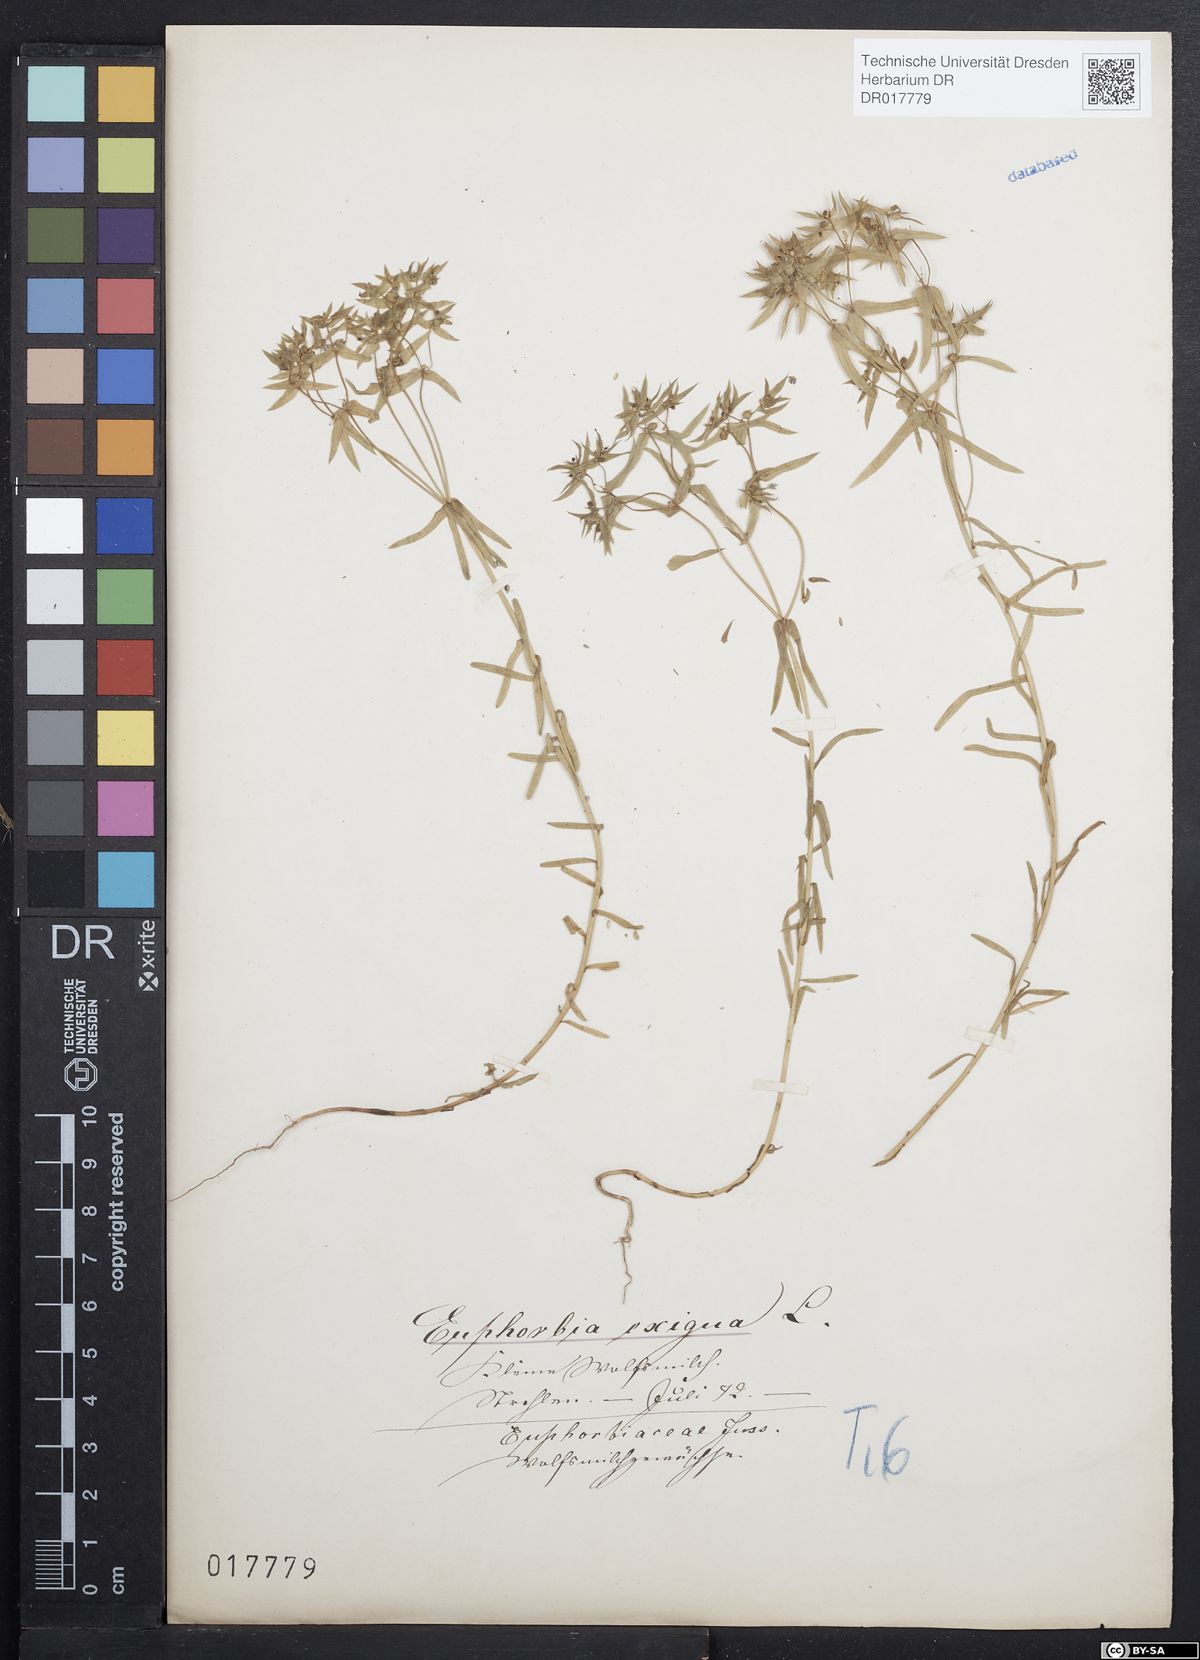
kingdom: Plantae
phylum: Tracheophyta
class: Magnoliopsida
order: Malpighiales
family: Euphorbiaceae
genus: Euphorbia
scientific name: Euphorbia exigua
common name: Dwarf spurge
